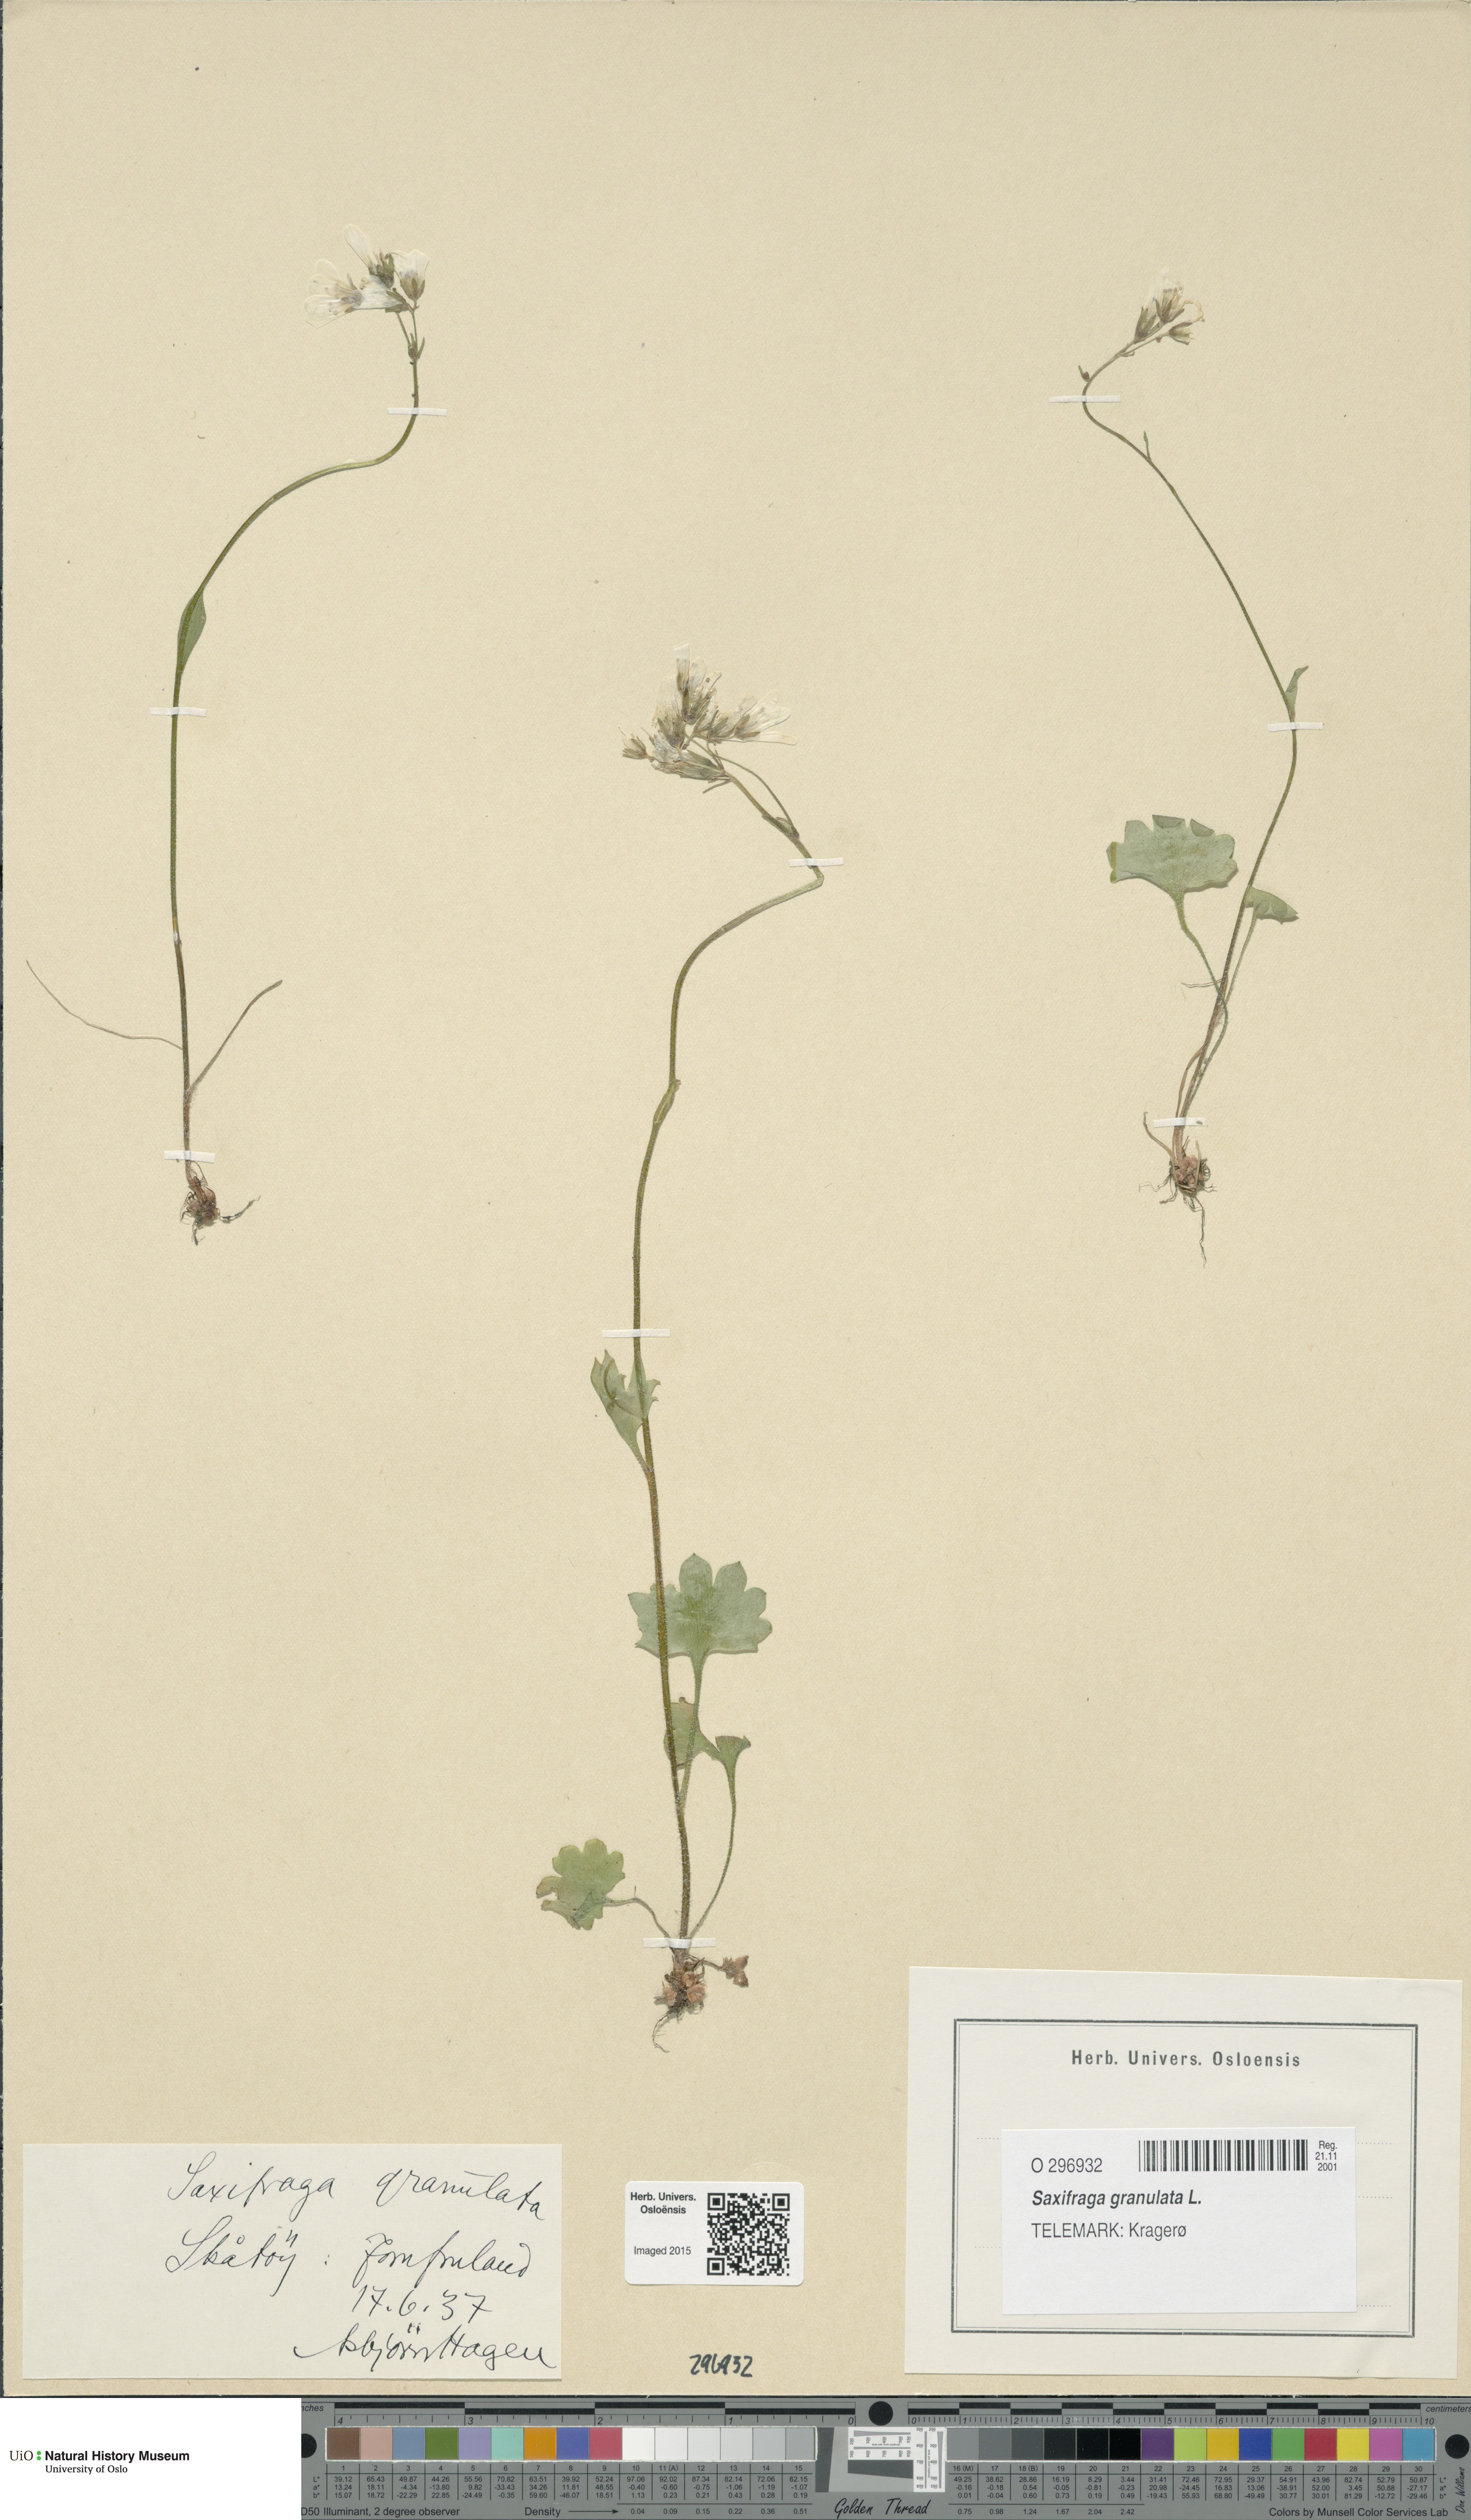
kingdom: Plantae
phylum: Tracheophyta
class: Magnoliopsida
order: Saxifragales
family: Saxifragaceae
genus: Saxifraga
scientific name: Saxifraga granulata
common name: Meadow saxifrage
